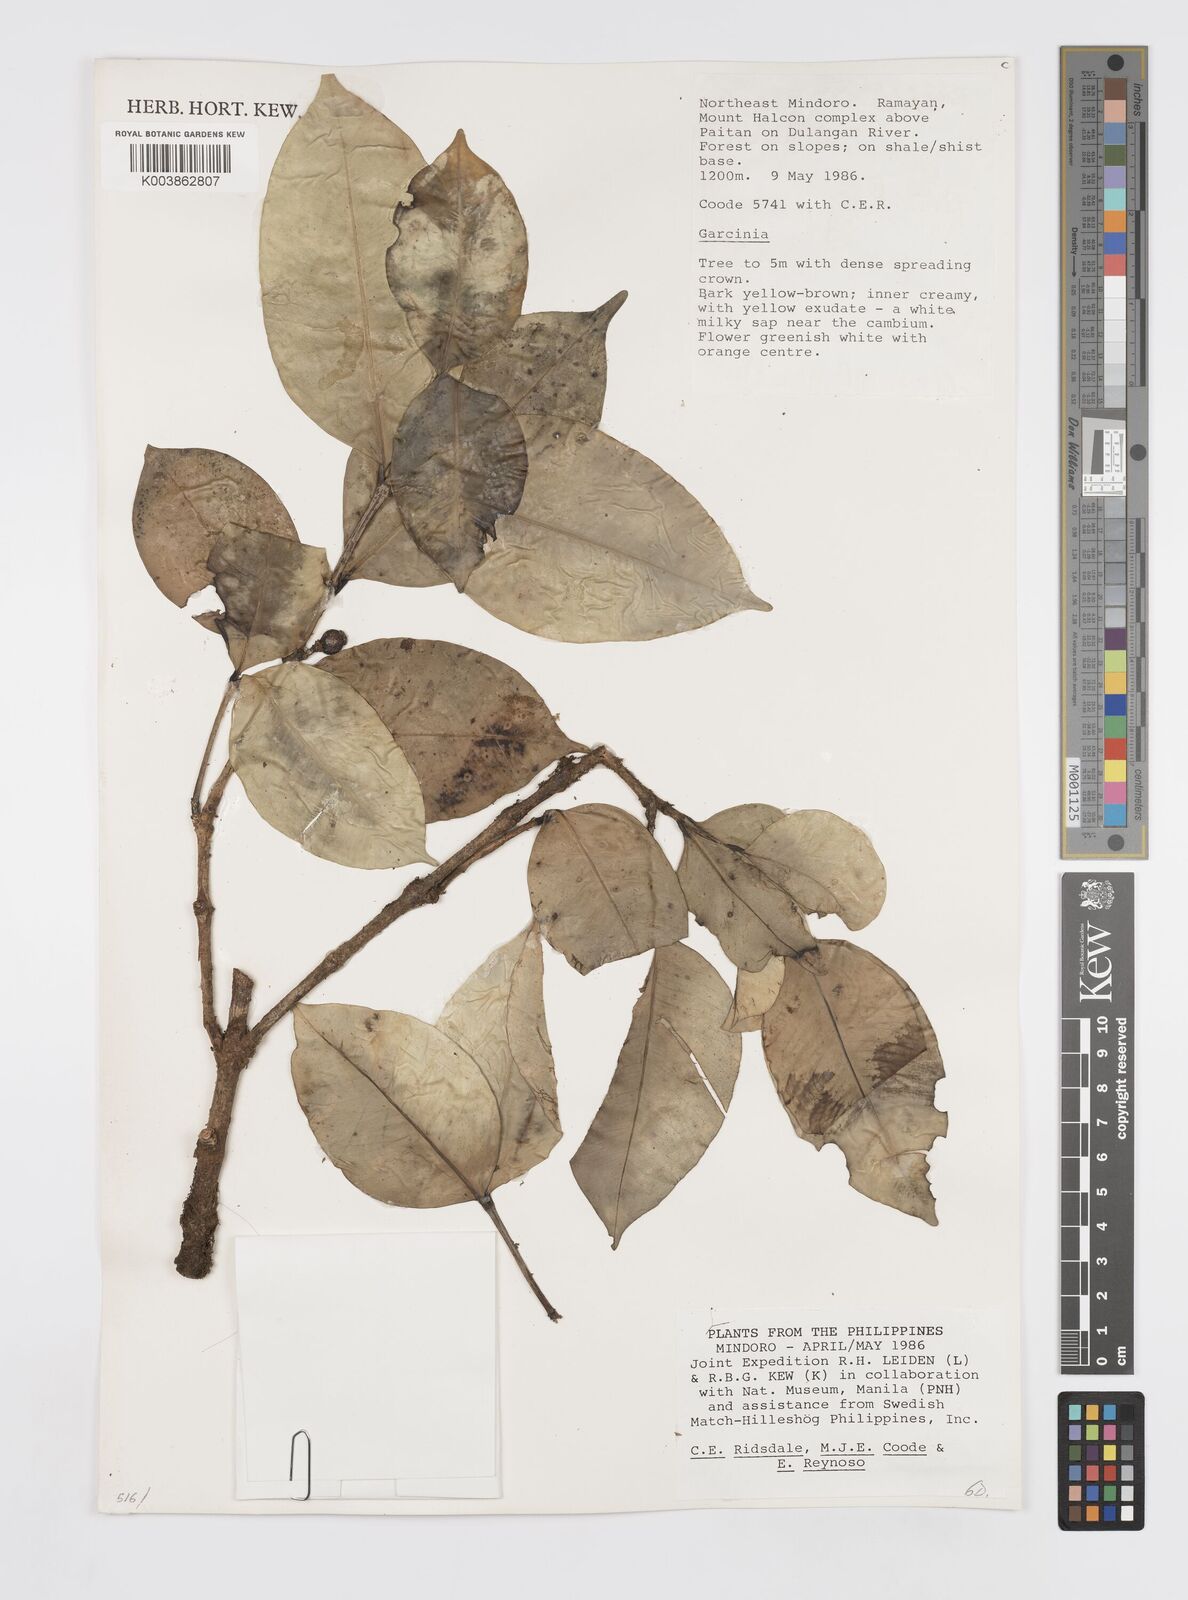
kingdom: Plantae
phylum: Tracheophyta
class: Magnoliopsida
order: Malpighiales
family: Clusiaceae
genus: Garcinia
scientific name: Garcinia
